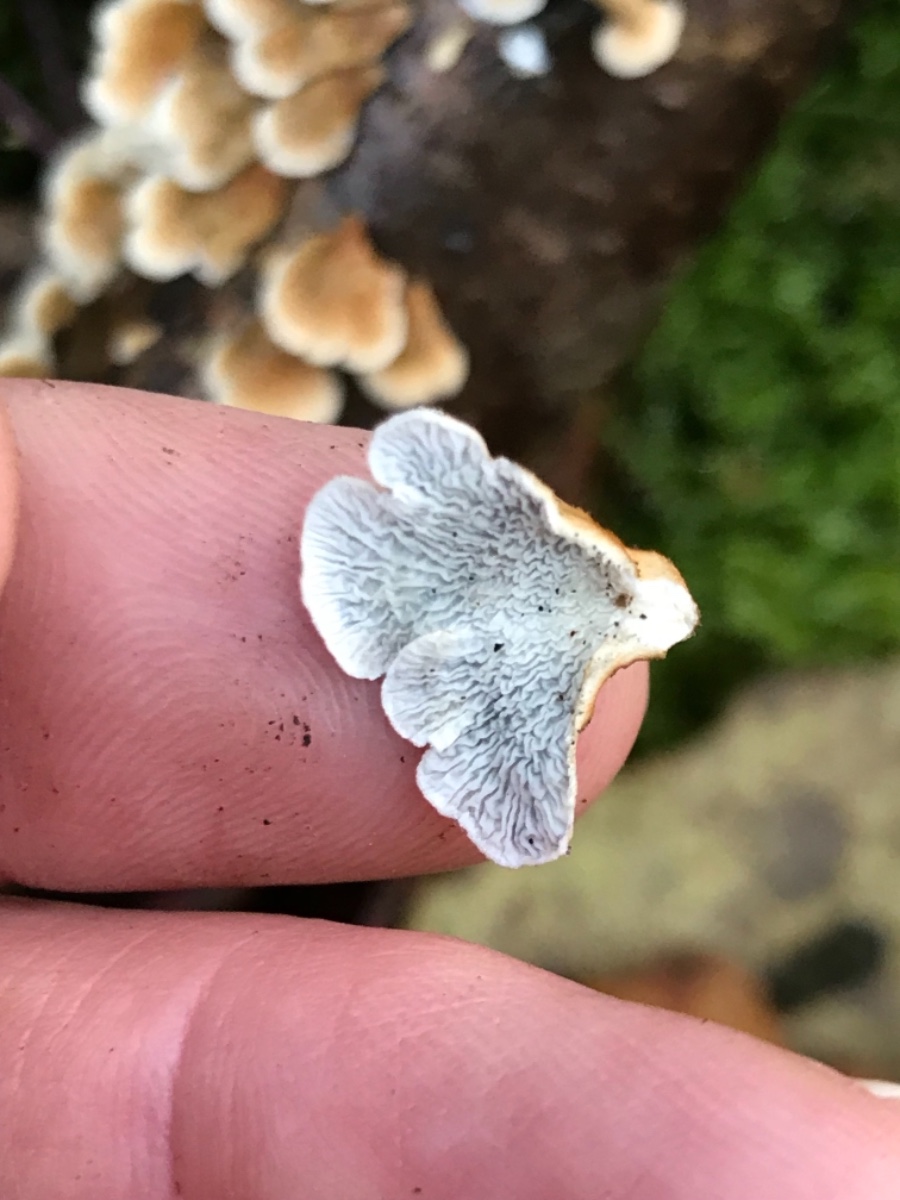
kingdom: Fungi
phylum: Basidiomycota
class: Agaricomycetes
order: Amylocorticiales
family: Amylocorticiaceae
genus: Plicaturopsis
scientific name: Plicaturopsis crispa
